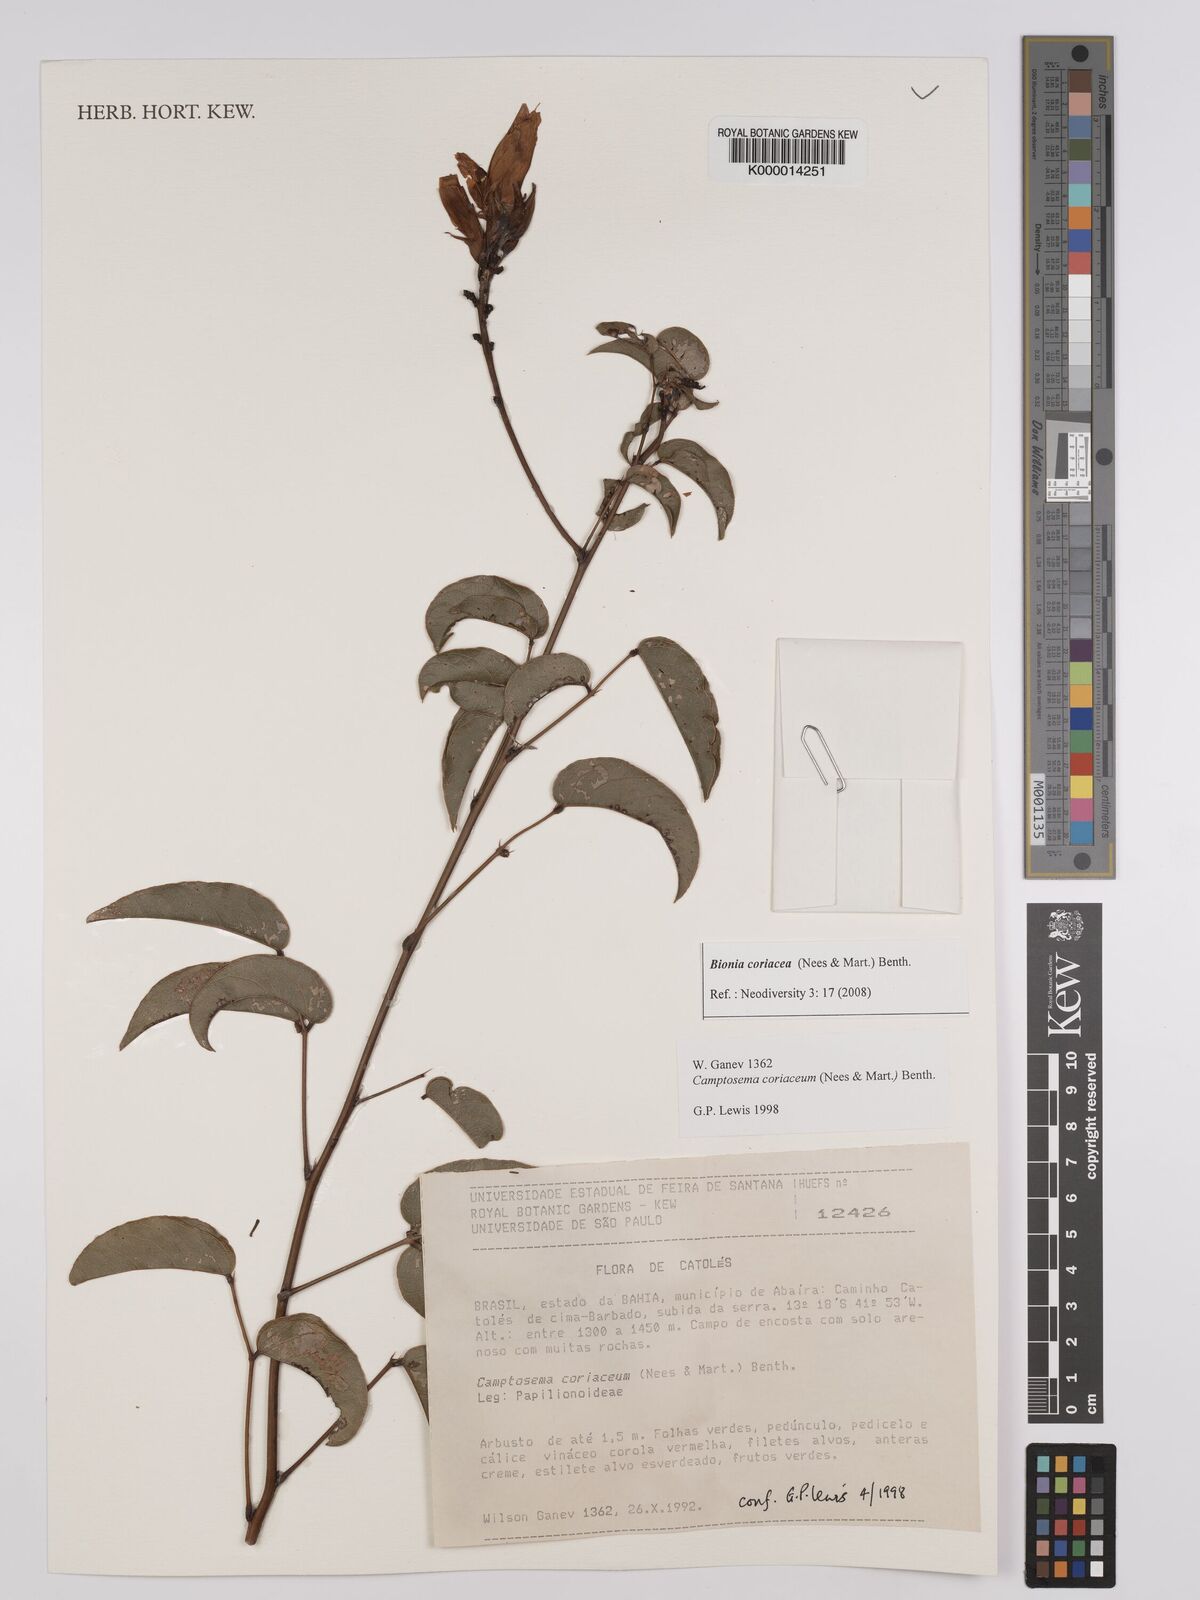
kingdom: Plantae
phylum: Tracheophyta
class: Magnoliopsida
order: Fabales
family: Fabaceae
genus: Camptosema
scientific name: Camptosema coriaceum
